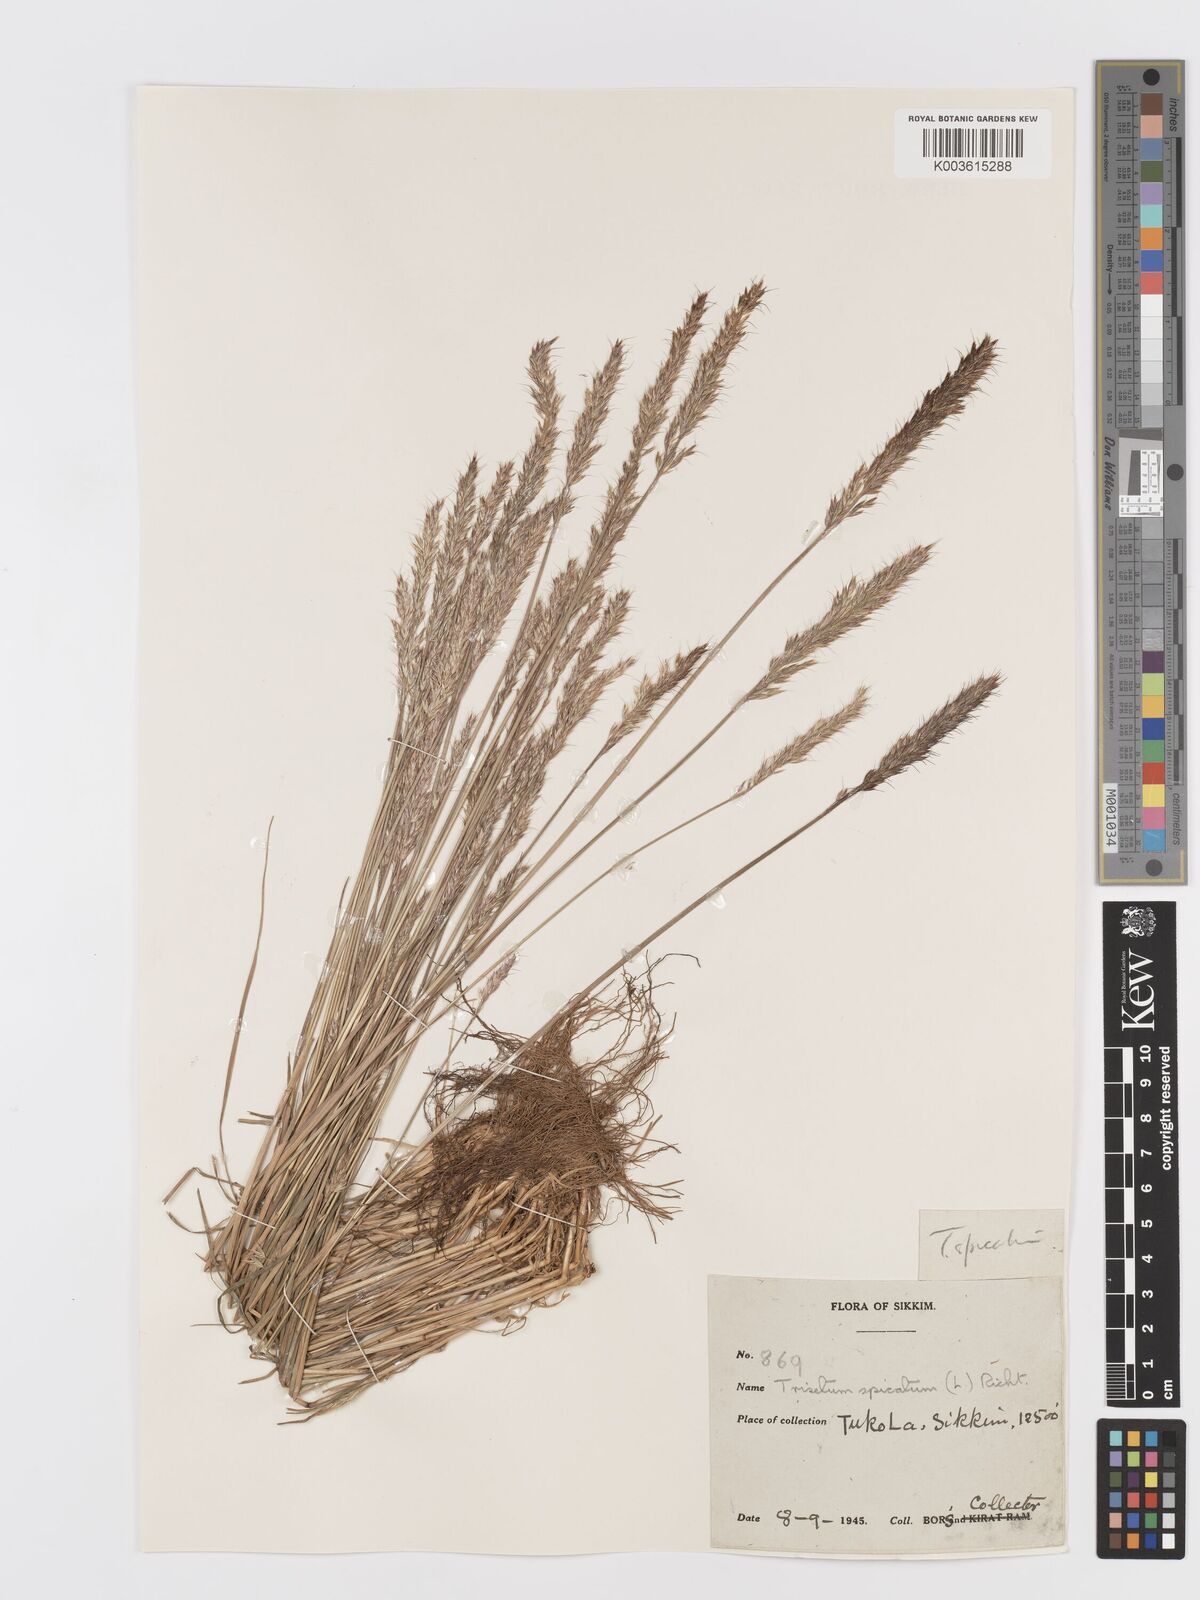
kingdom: Plantae
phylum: Tracheophyta
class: Liliopsida
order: Poales
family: Poaceae
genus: Koeleria
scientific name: Koeleria spicata
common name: Mountain trisetum
